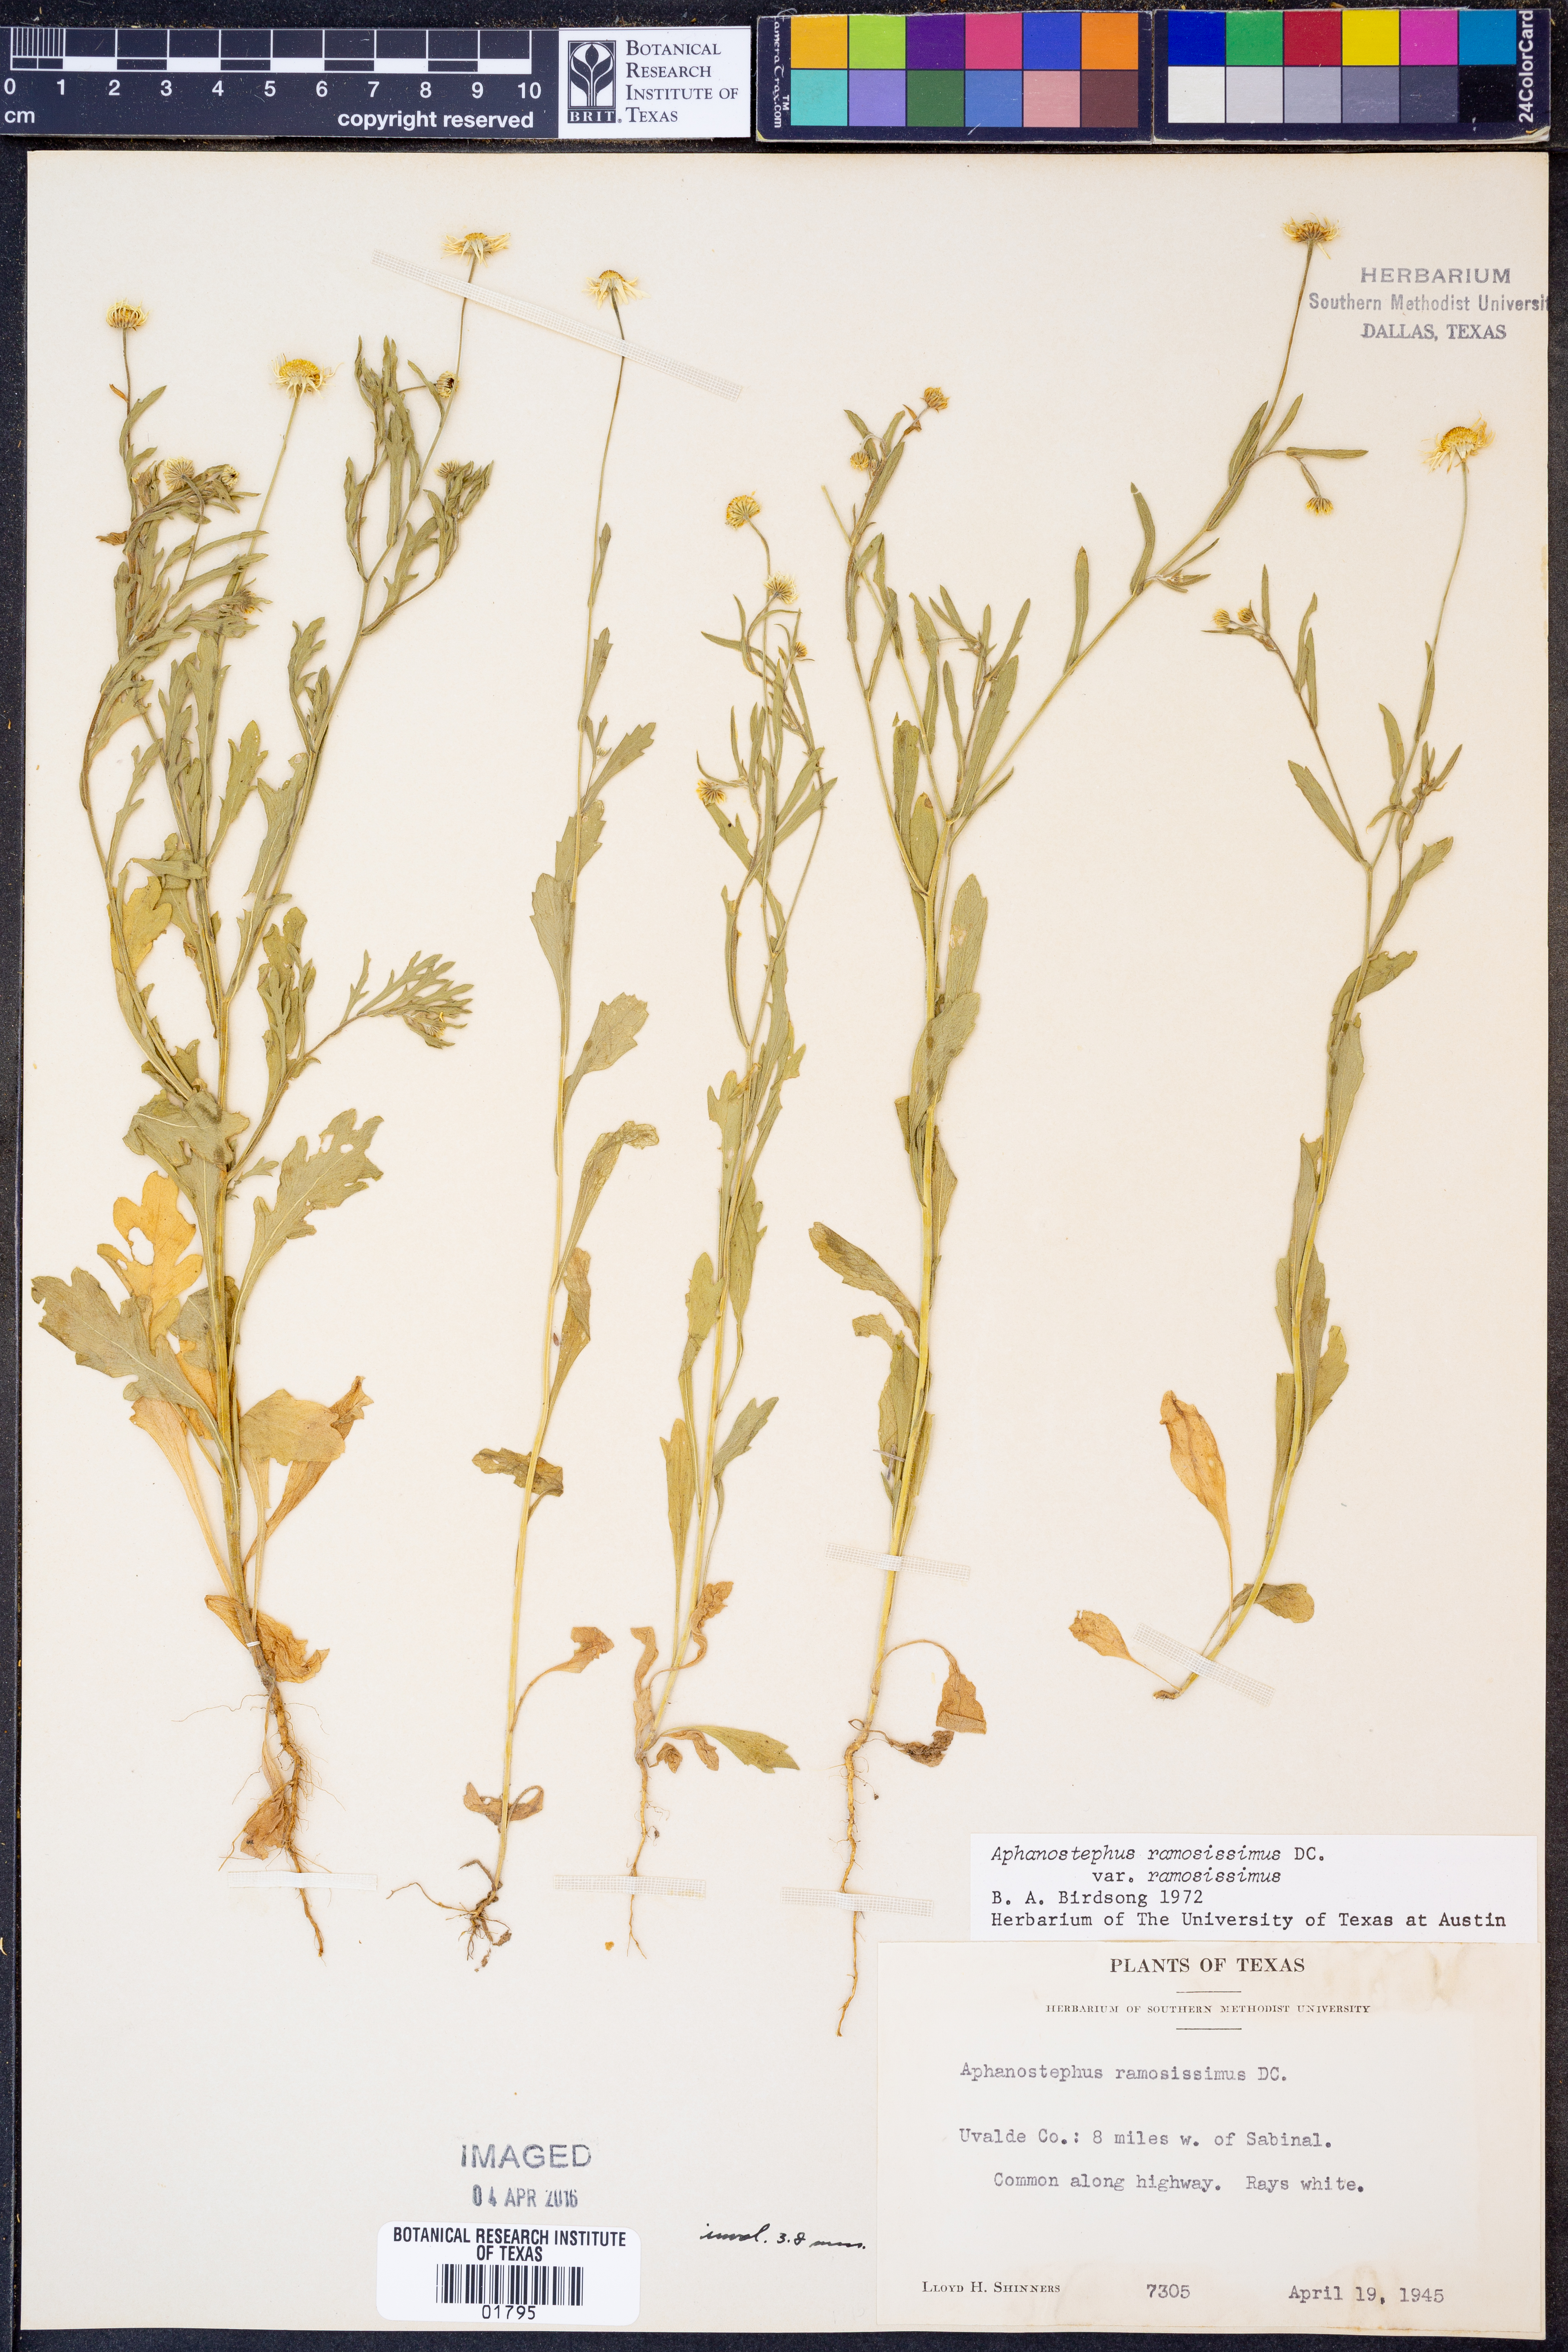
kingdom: Plantae
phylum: Tracheophyta
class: Magnoliopsida
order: Asterales
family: Asteraceae
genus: Aphanostephus
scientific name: Aphanostephus ramosissimus
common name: Plains lazy daisy
